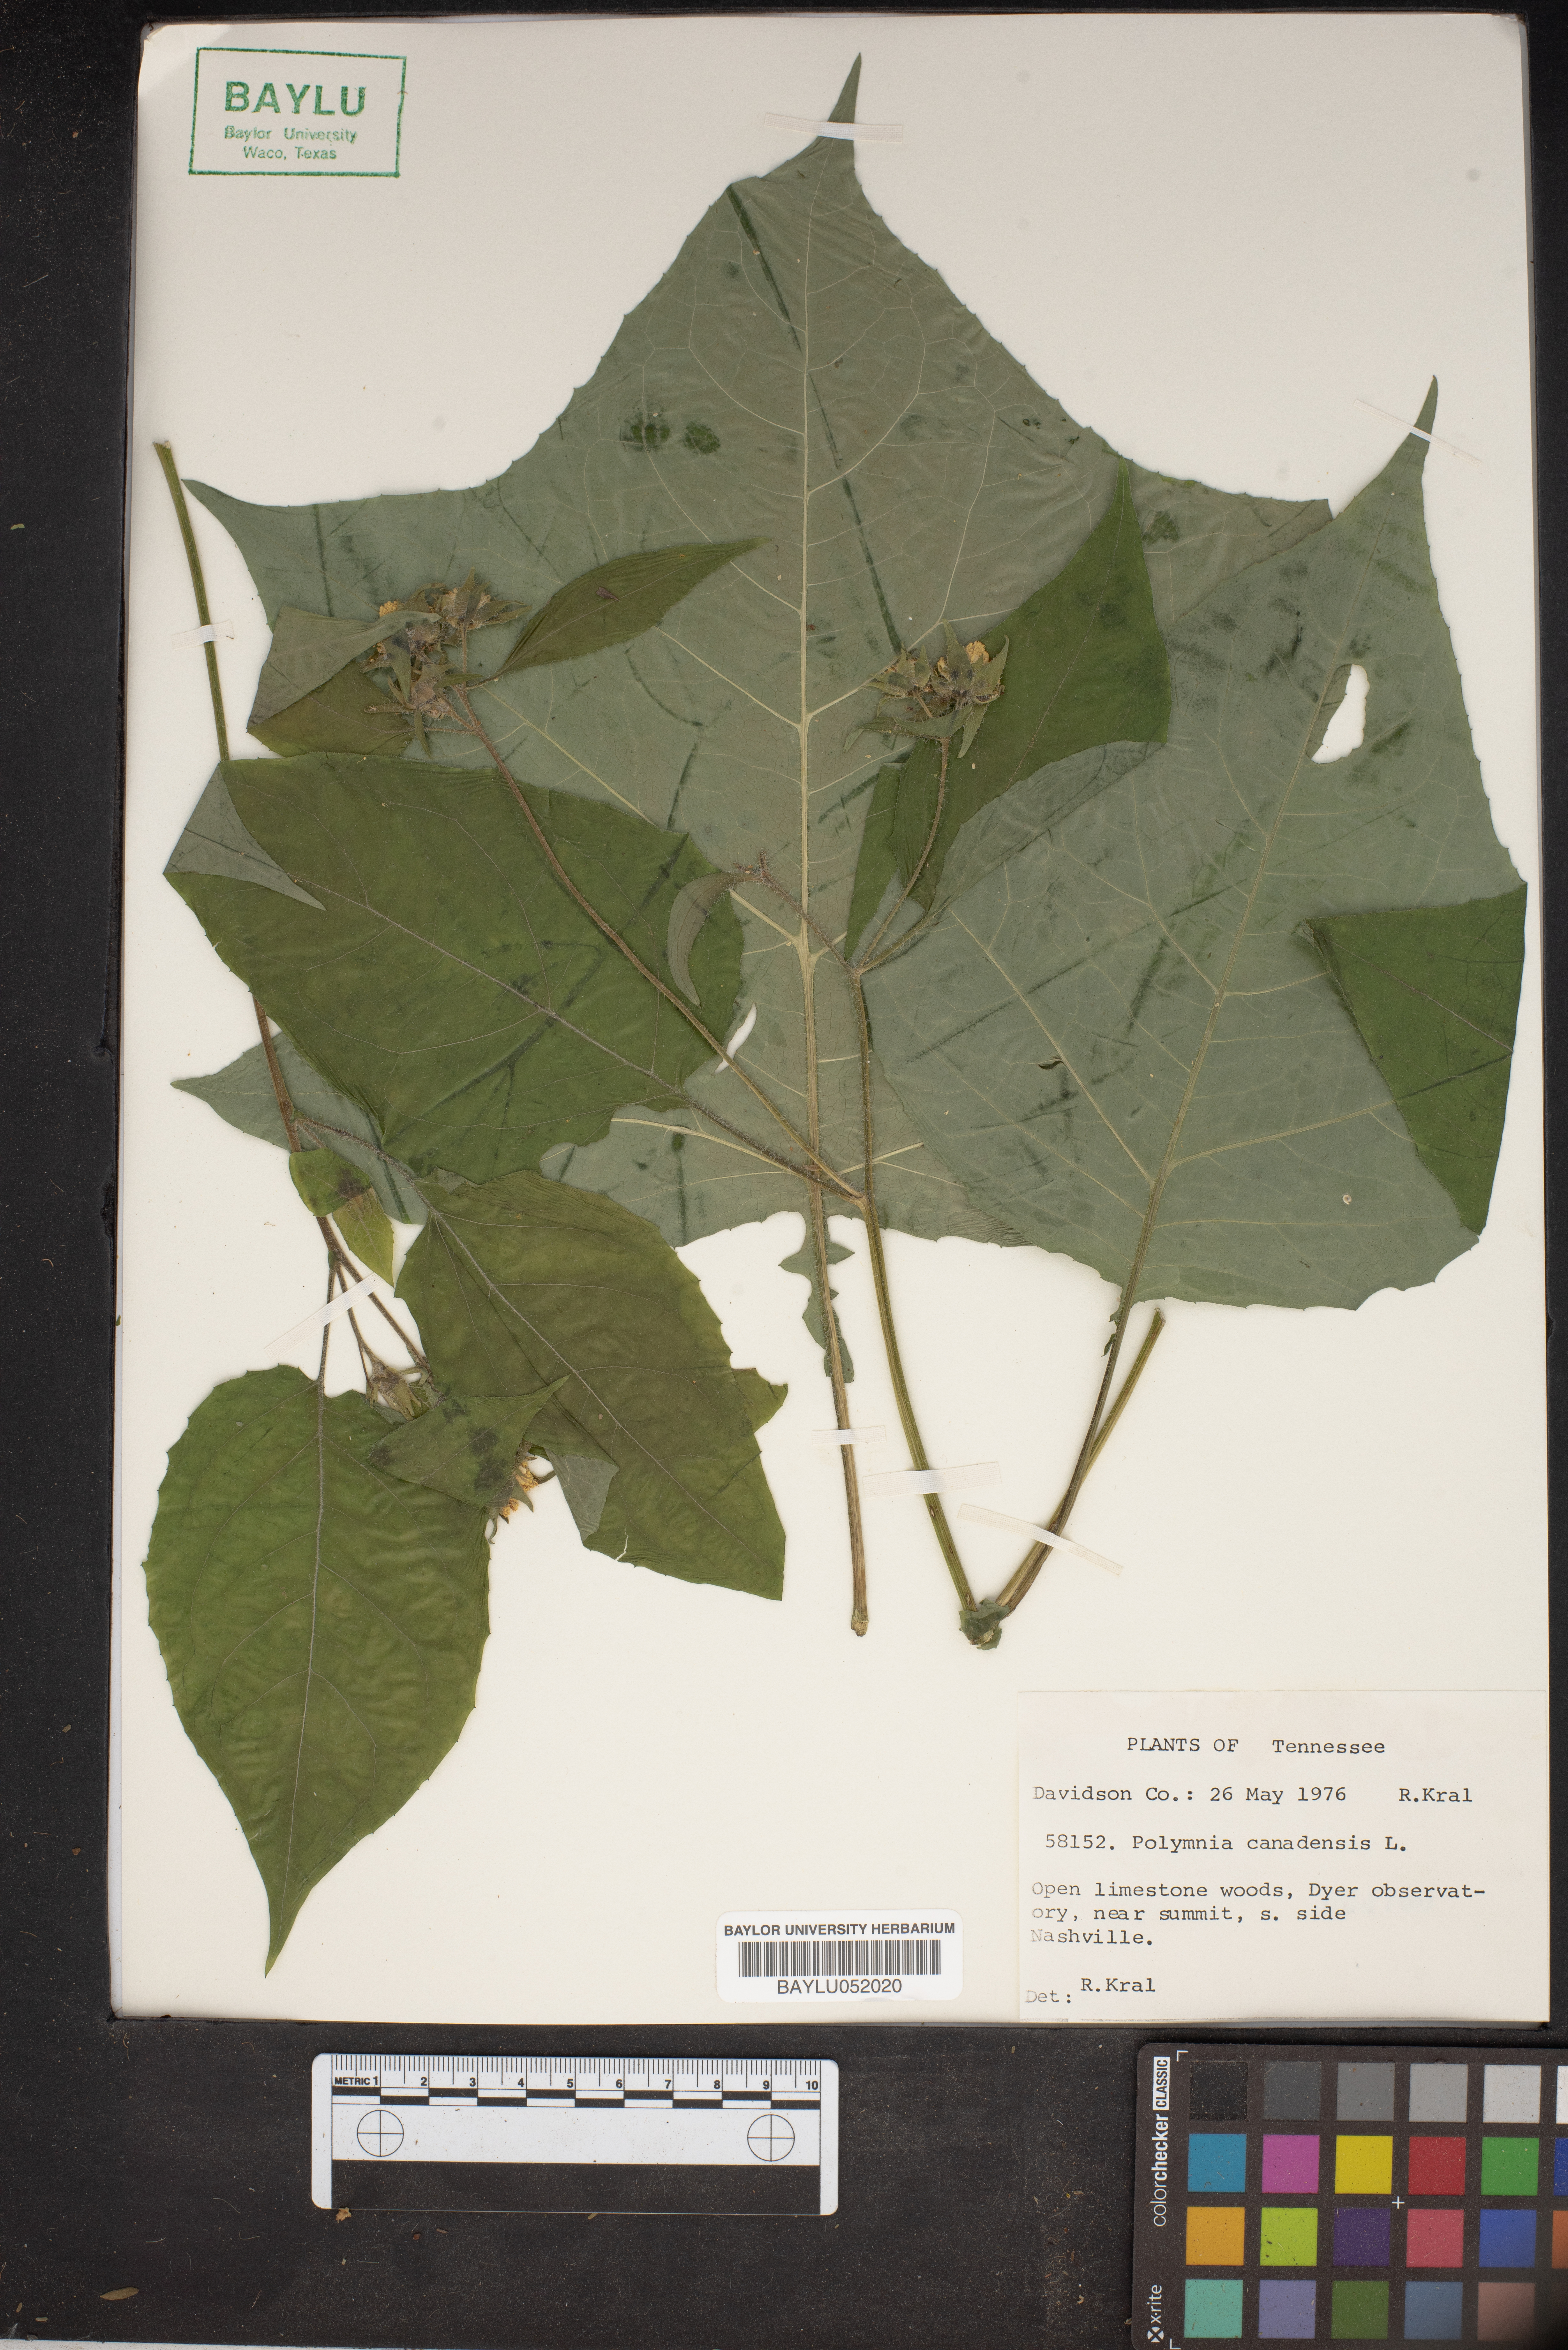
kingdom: Plantae
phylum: Tracheophyta
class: Magnoliopsida
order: Asterales
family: Asteraceae
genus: Polymnia
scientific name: Polymnia canadensis
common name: Pale-flowered leafcup
